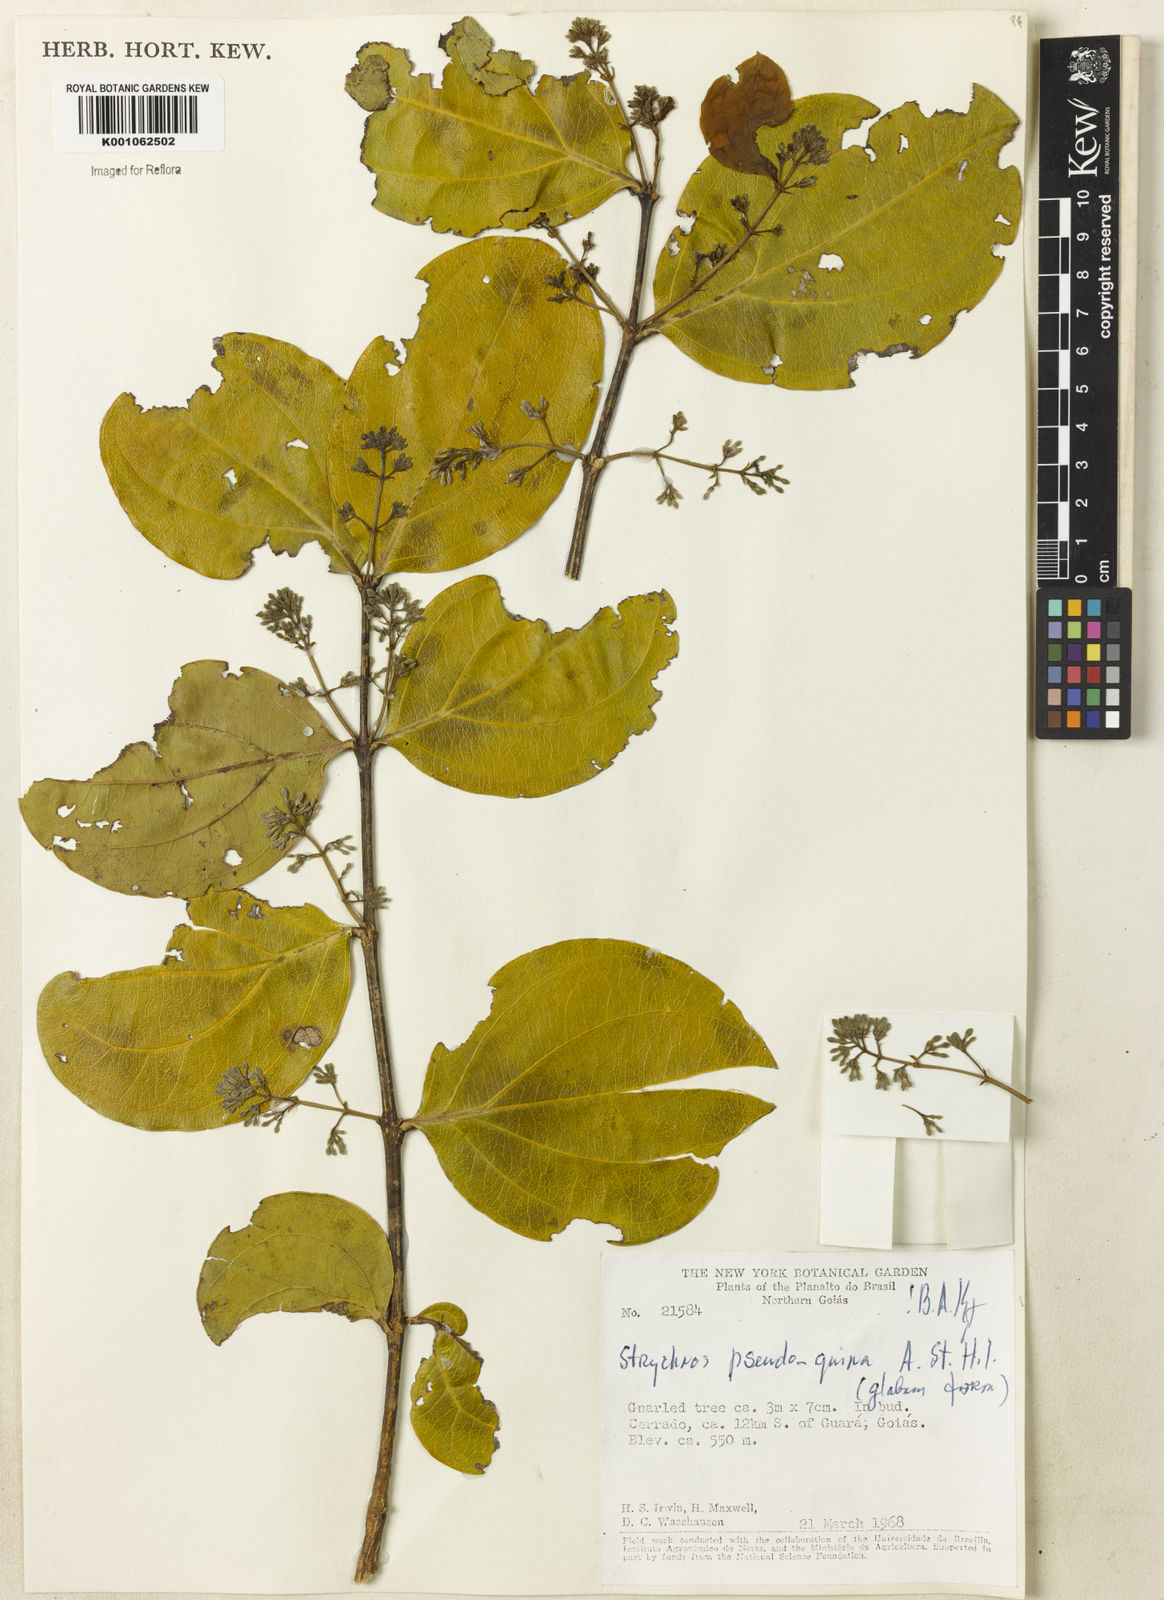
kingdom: Plantae
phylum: Tracheophyta
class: Magnoliopsida
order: Gentianales
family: Loganiaceae
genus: Strychnos
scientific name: Strychnos pseudoquina
